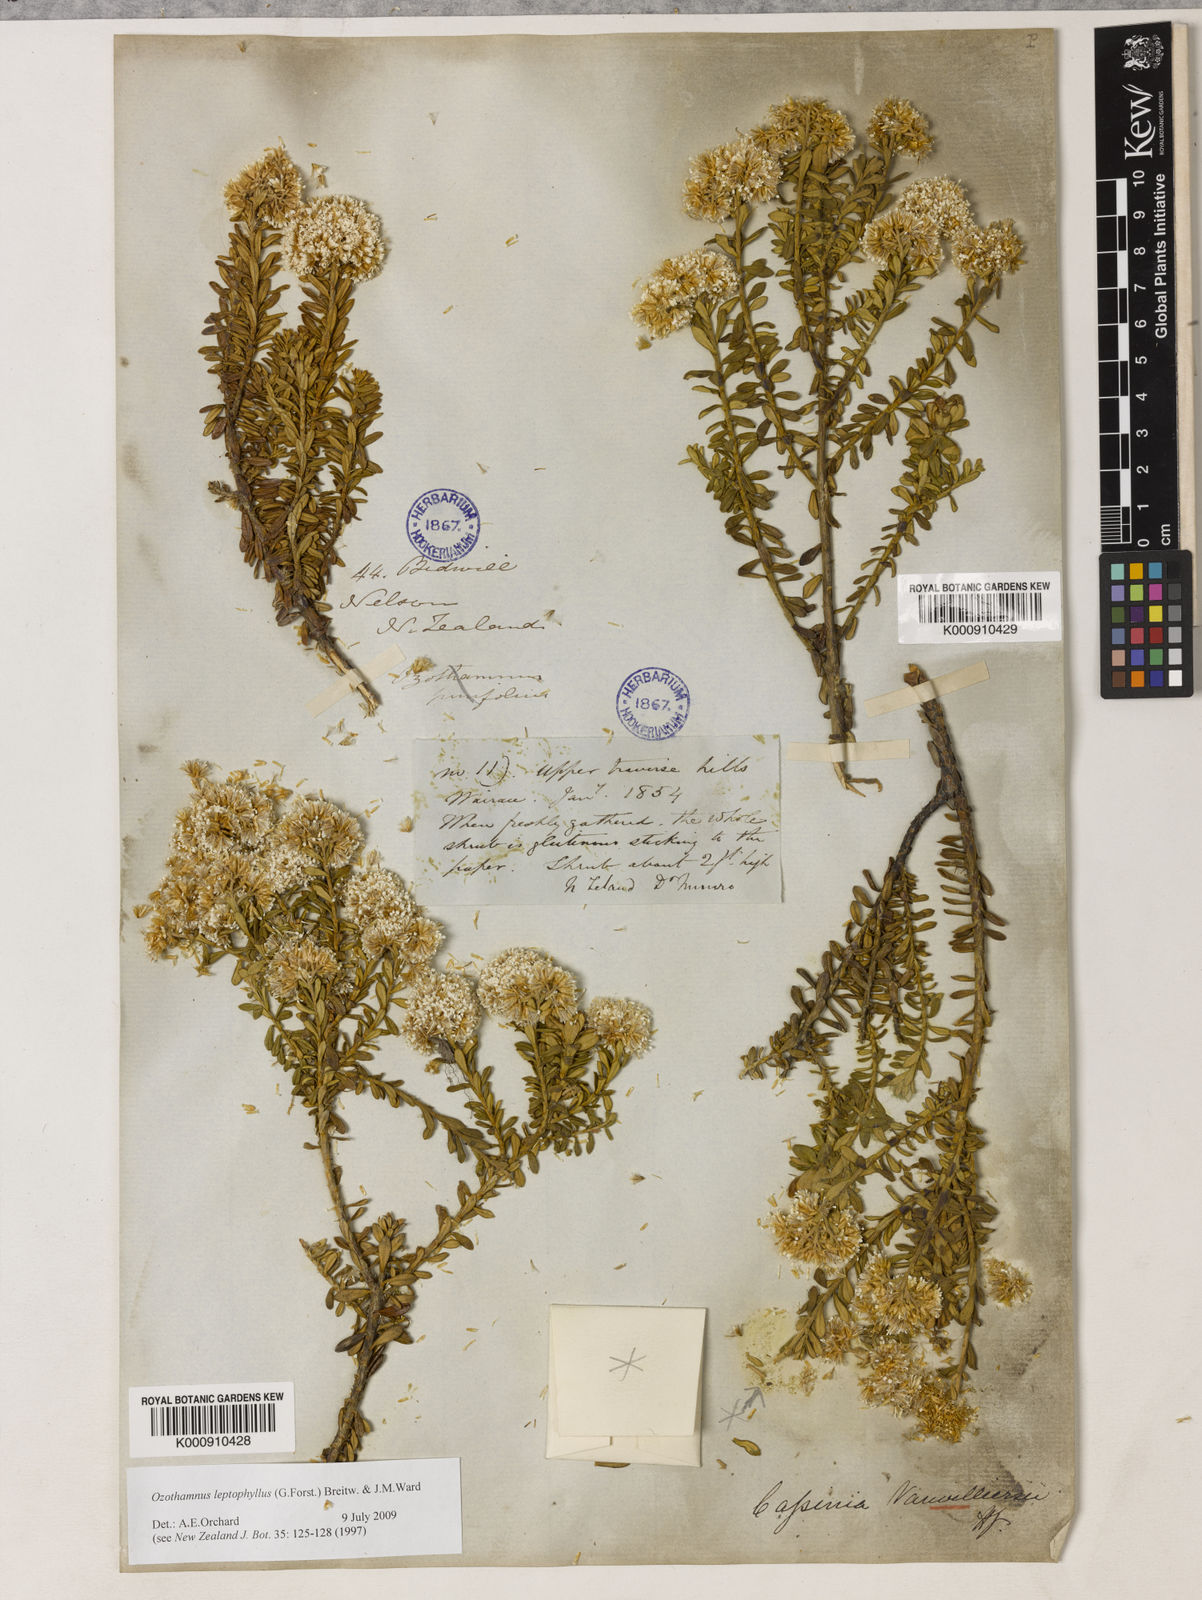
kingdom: Plantae
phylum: Tracheophyta
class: Magnoliopsida
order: Asterales
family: Asteraceae
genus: Ozothamnus
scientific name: Ozothamnus leptophyllus
